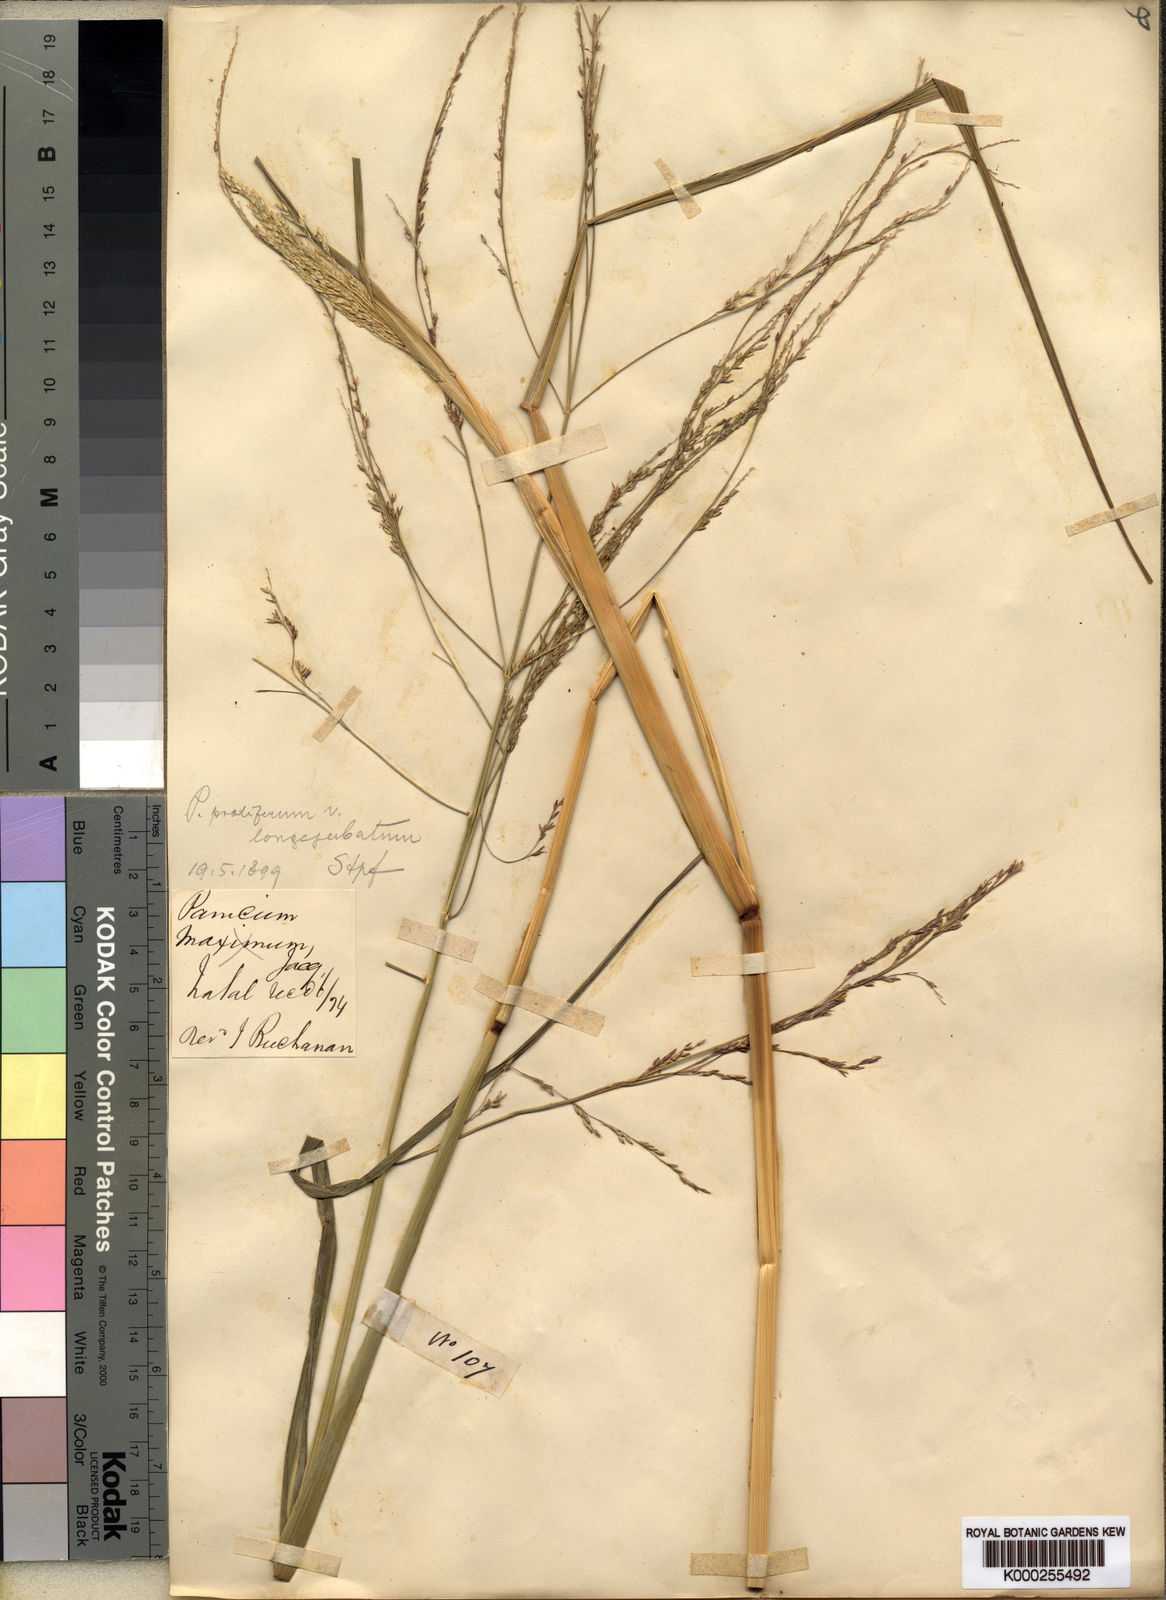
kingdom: Plantae
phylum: Tracheophyta
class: Liliopsida
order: Poales
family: Poaceae
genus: Panicum
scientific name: Panicum subalbidum
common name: Elbow buffalo grass
